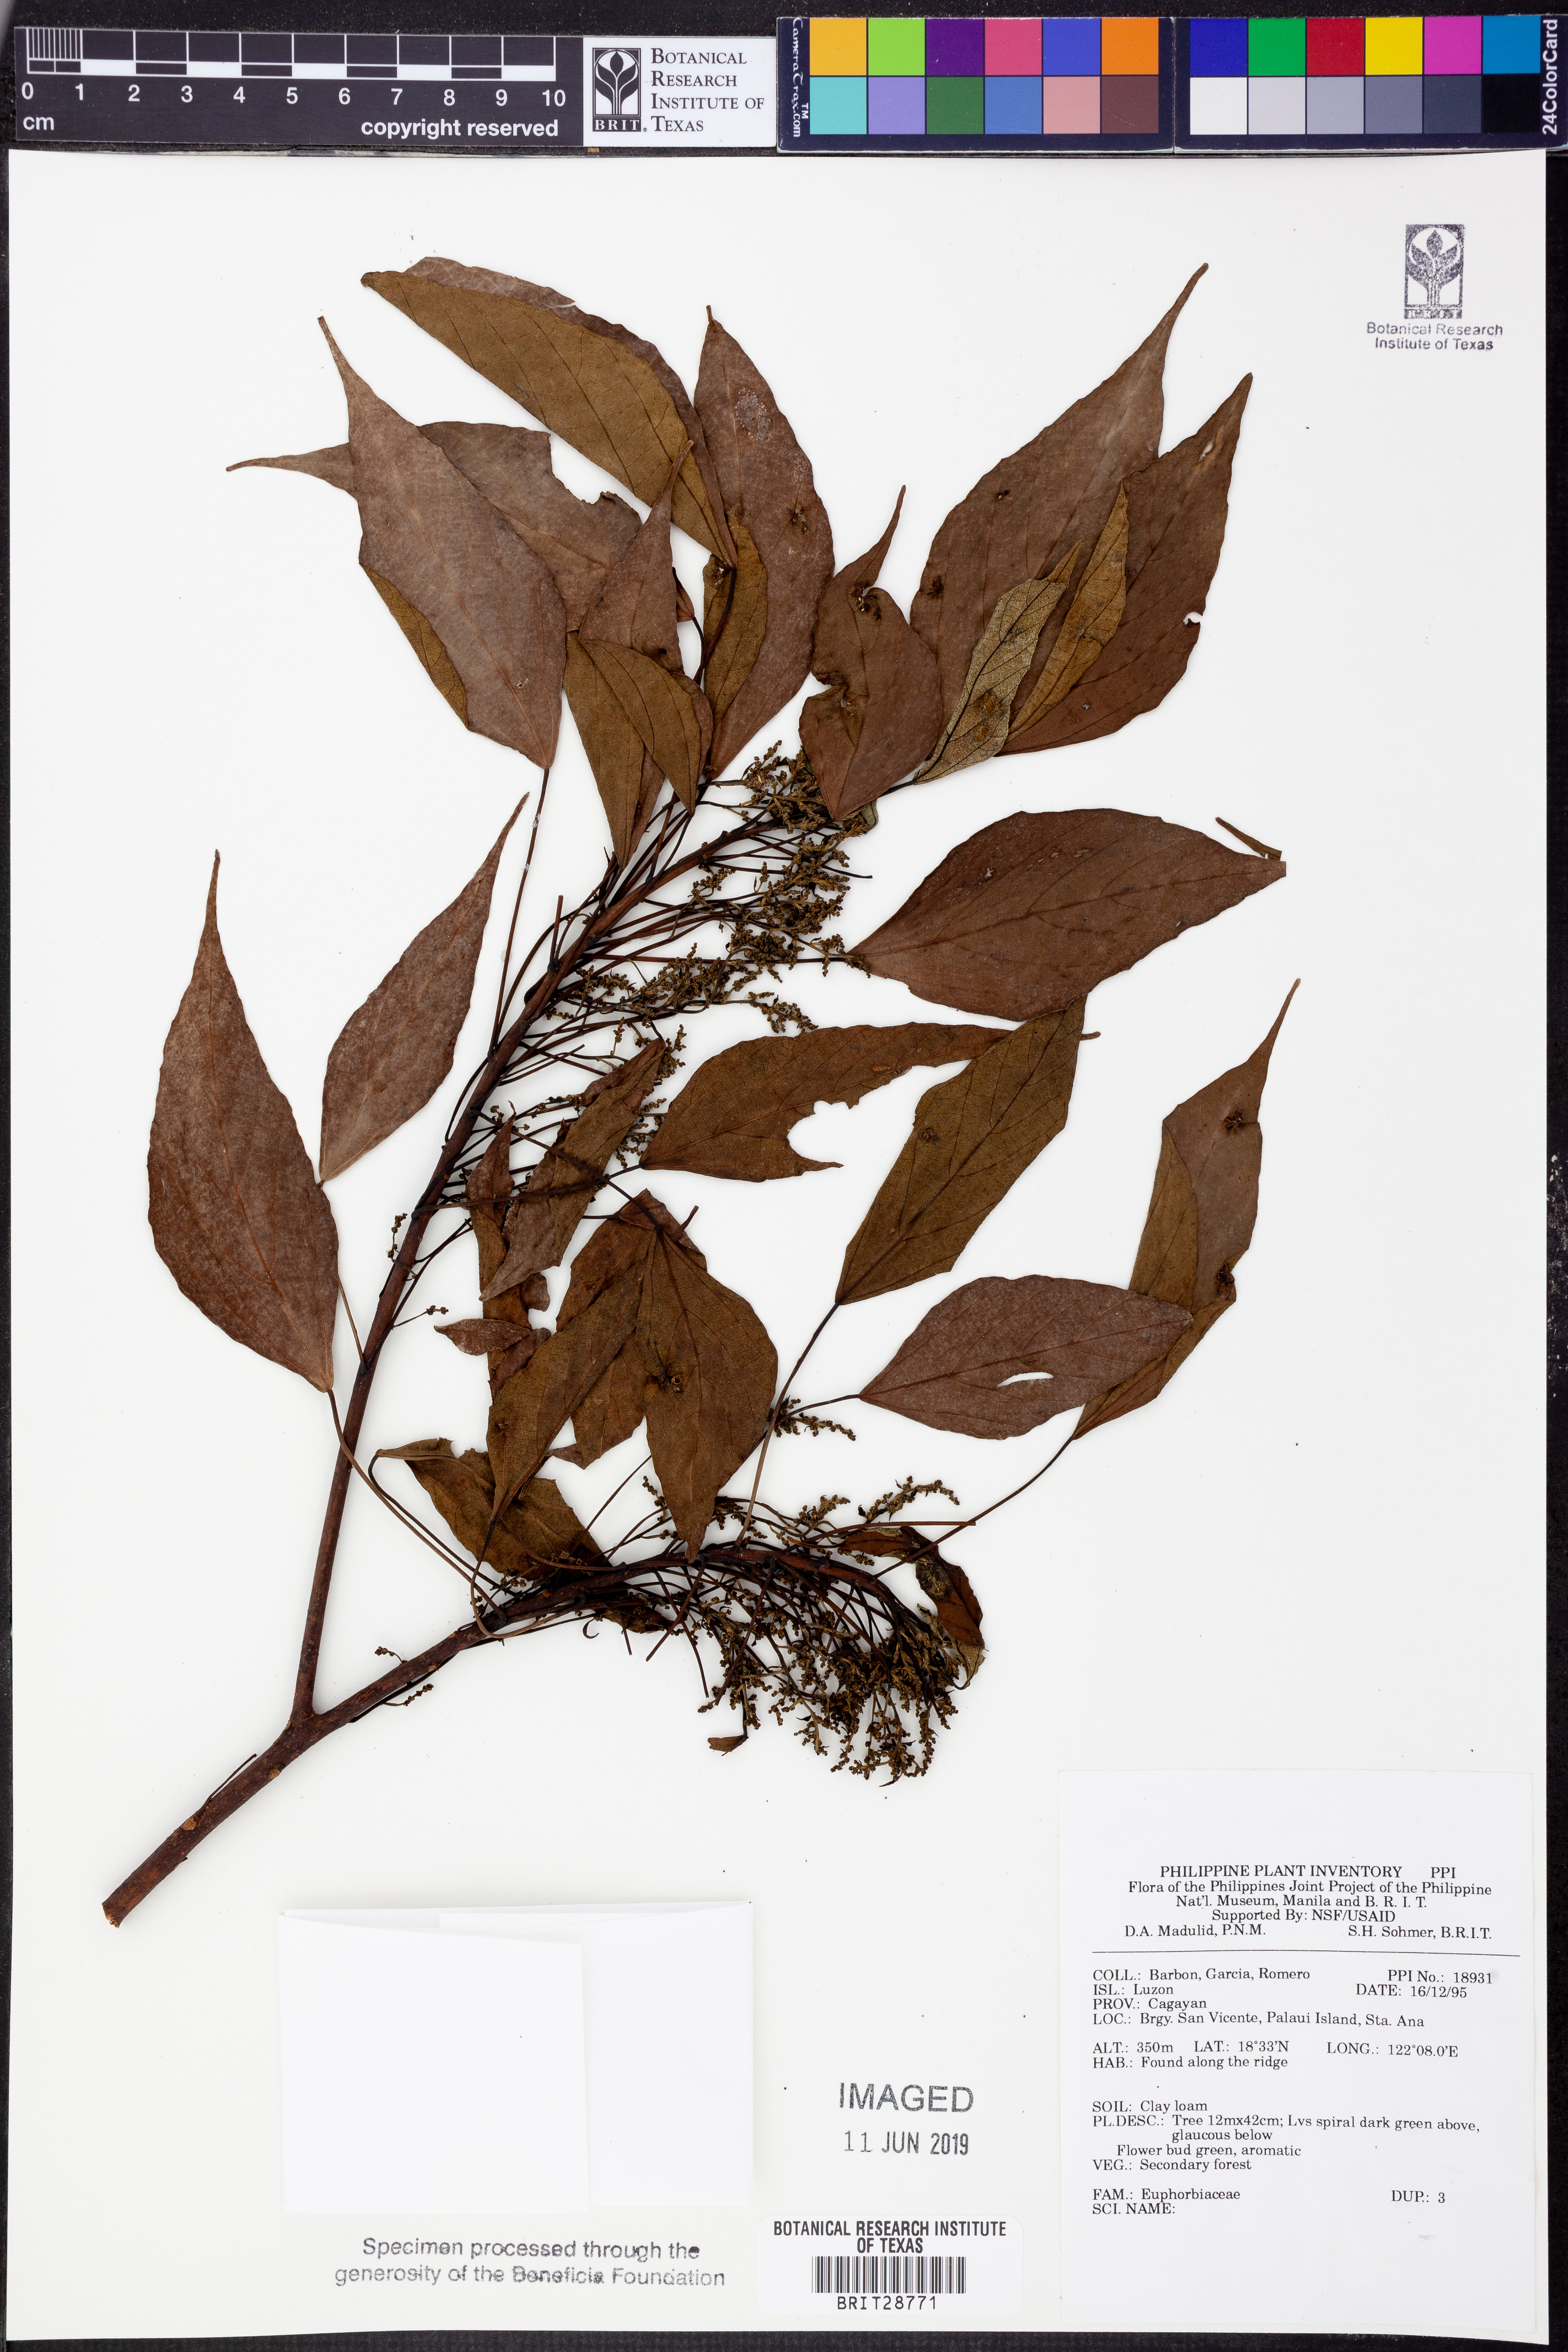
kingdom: Plantae
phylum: Tracheophyta
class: Magnoliopsida
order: Malpighiales
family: Euphorbiaceae
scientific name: Euphorbiaceae
